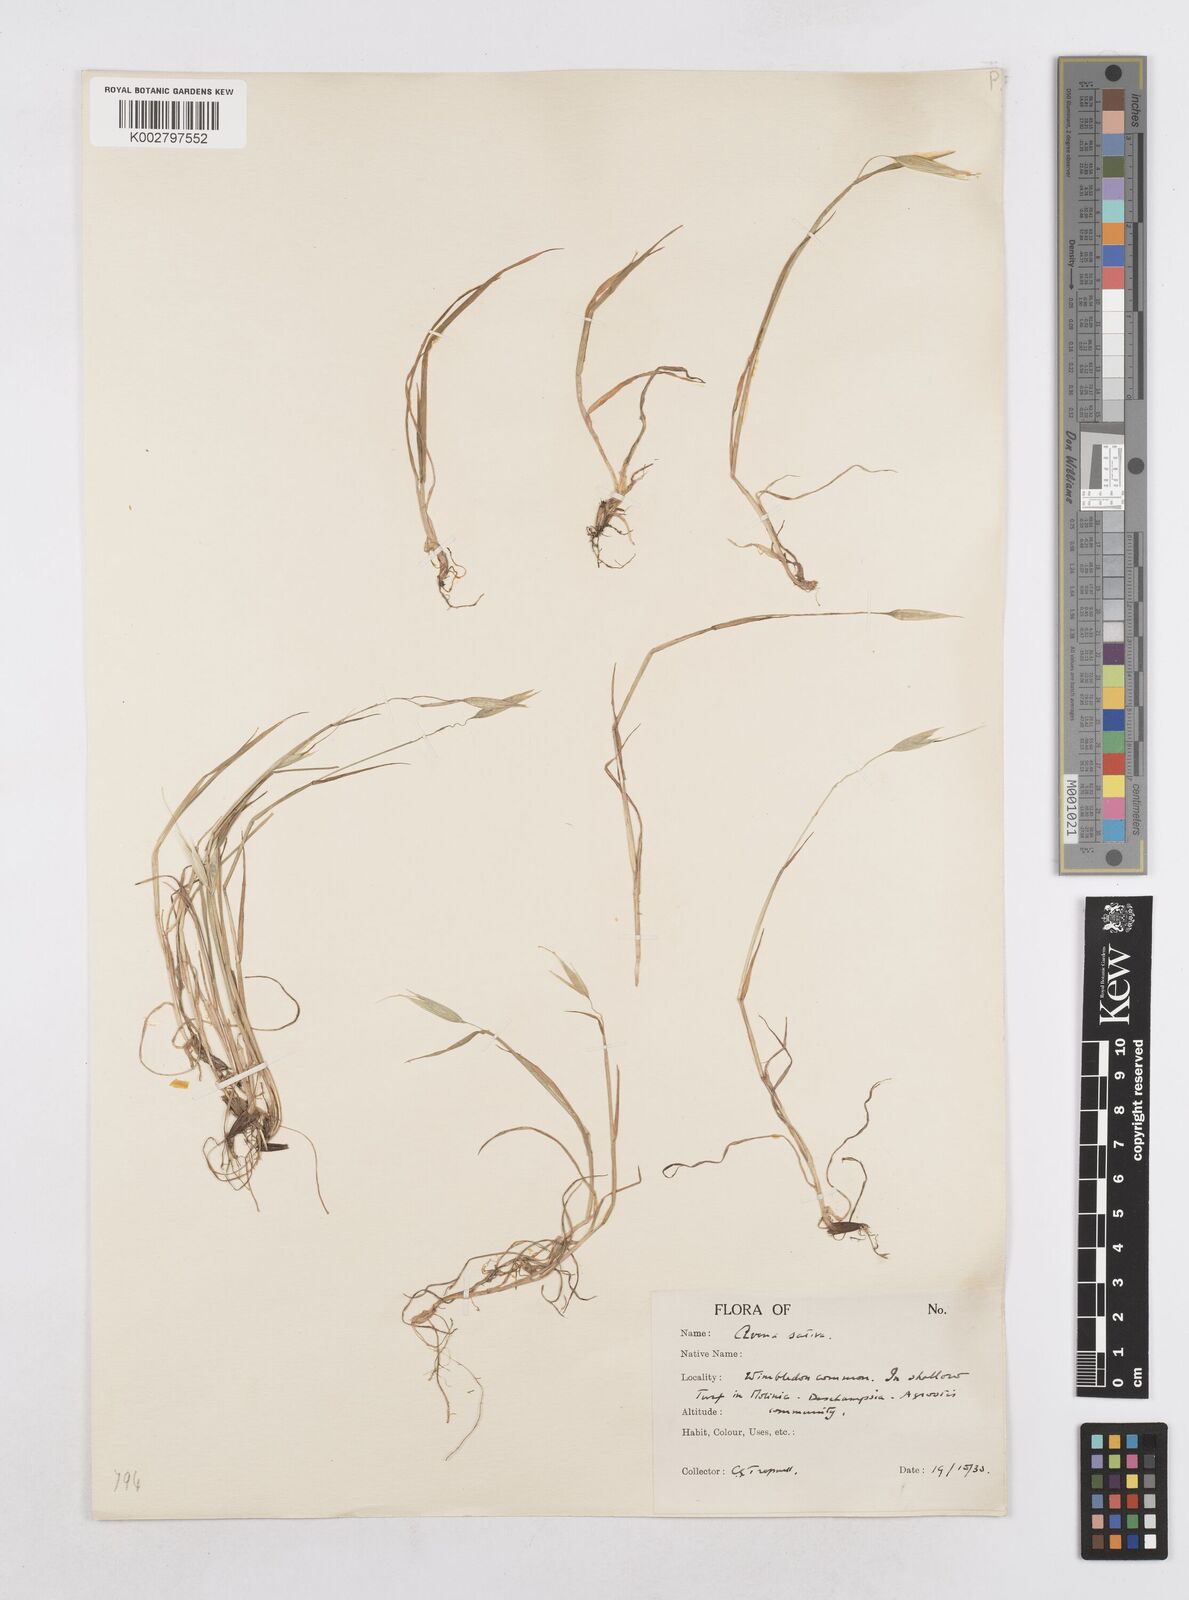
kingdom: Plantae
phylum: Tracheophyta
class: Liliopsida
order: Poales
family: Poaceae
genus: Avena
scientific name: Avena sativa
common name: Oat
